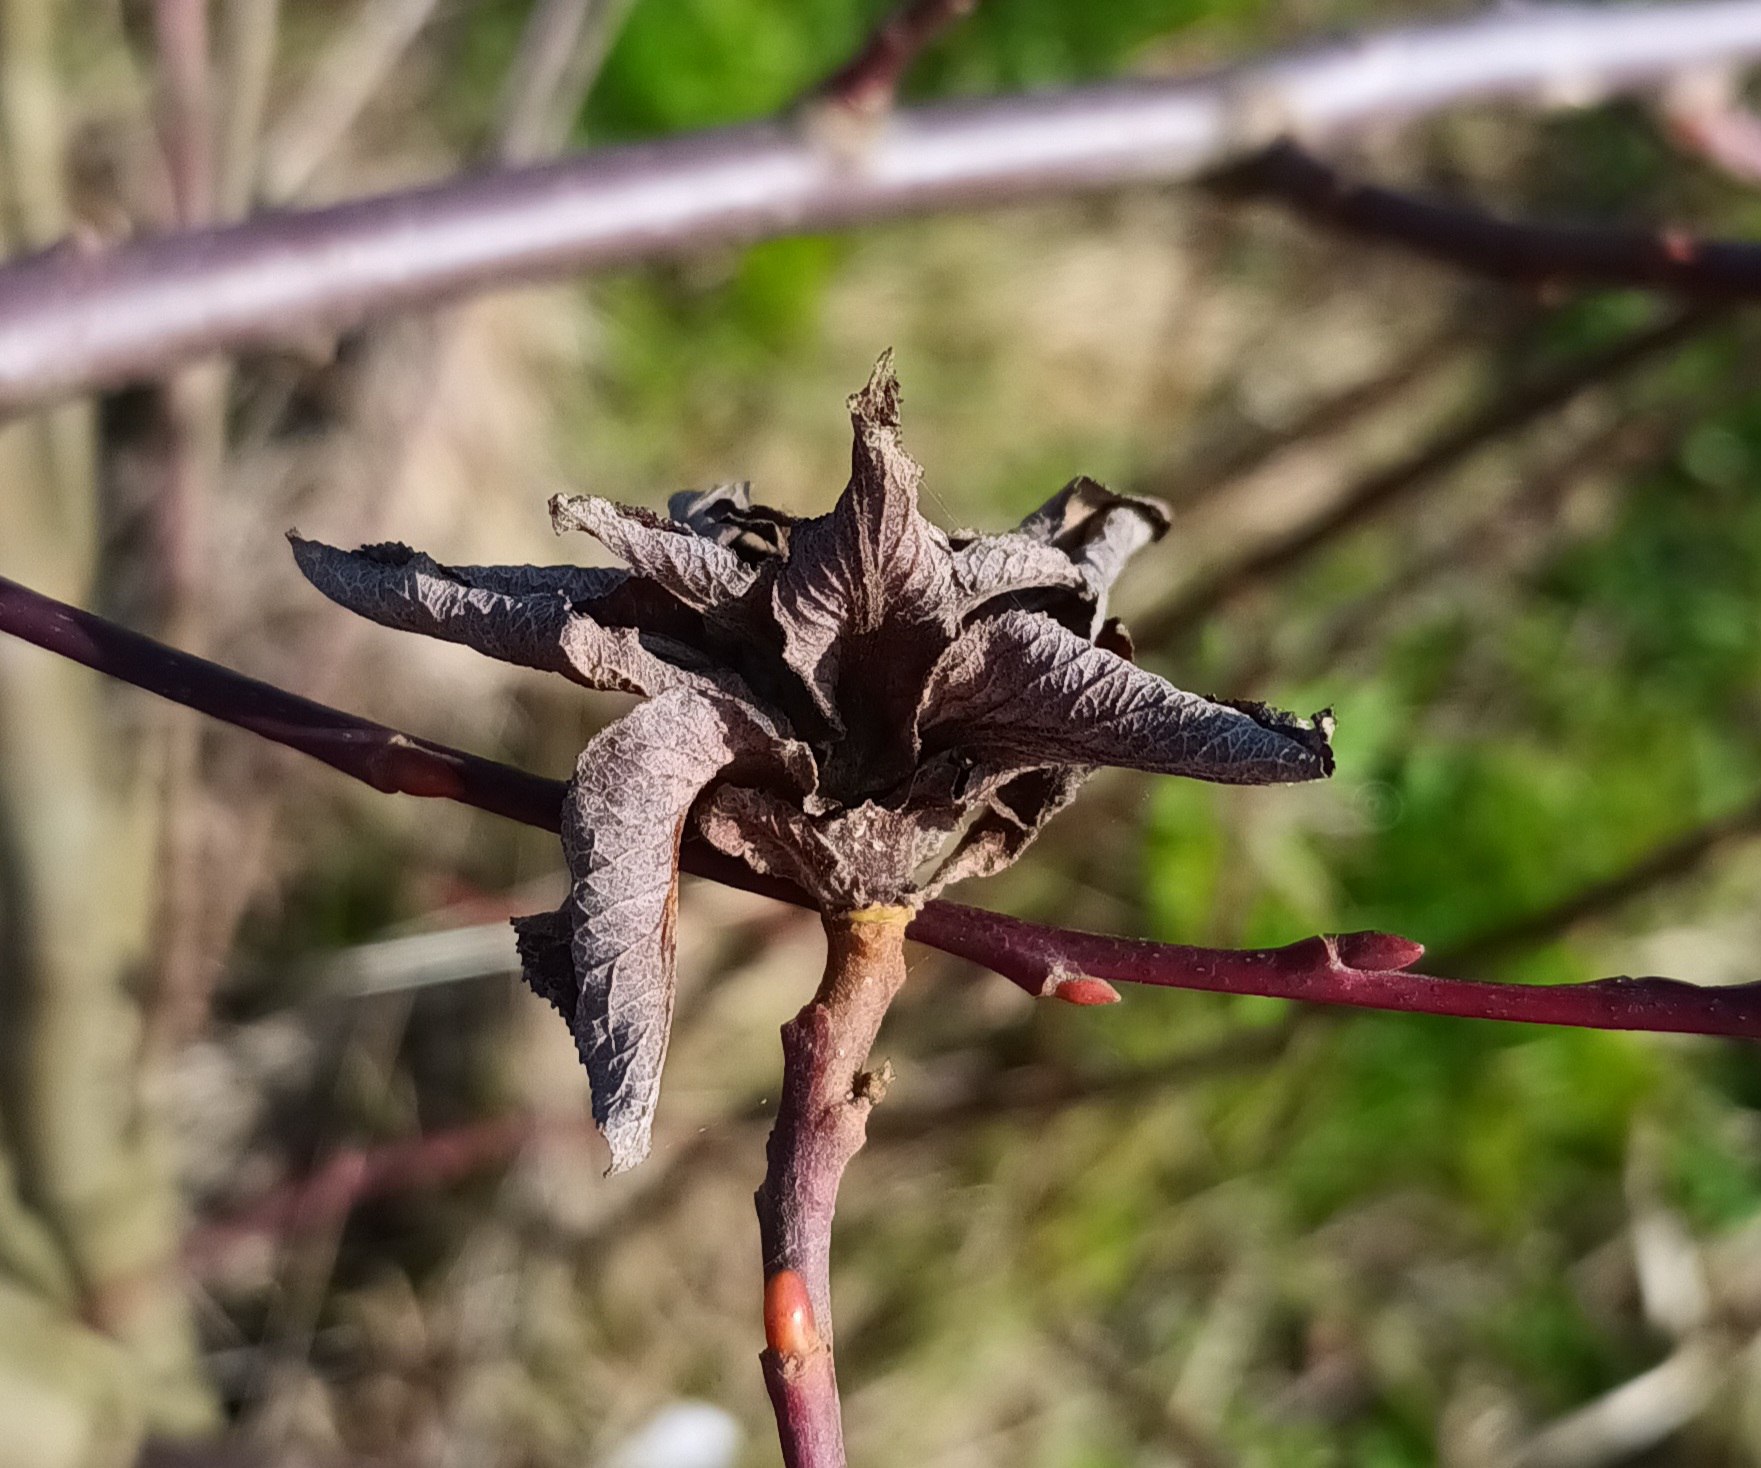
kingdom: Animalia
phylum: Arthropoda
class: Insecta
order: Diptera
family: Cecidomyiidae
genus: Rabdophaga
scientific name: Rabdophaga rosaria
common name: Pilerosetgalmyg
